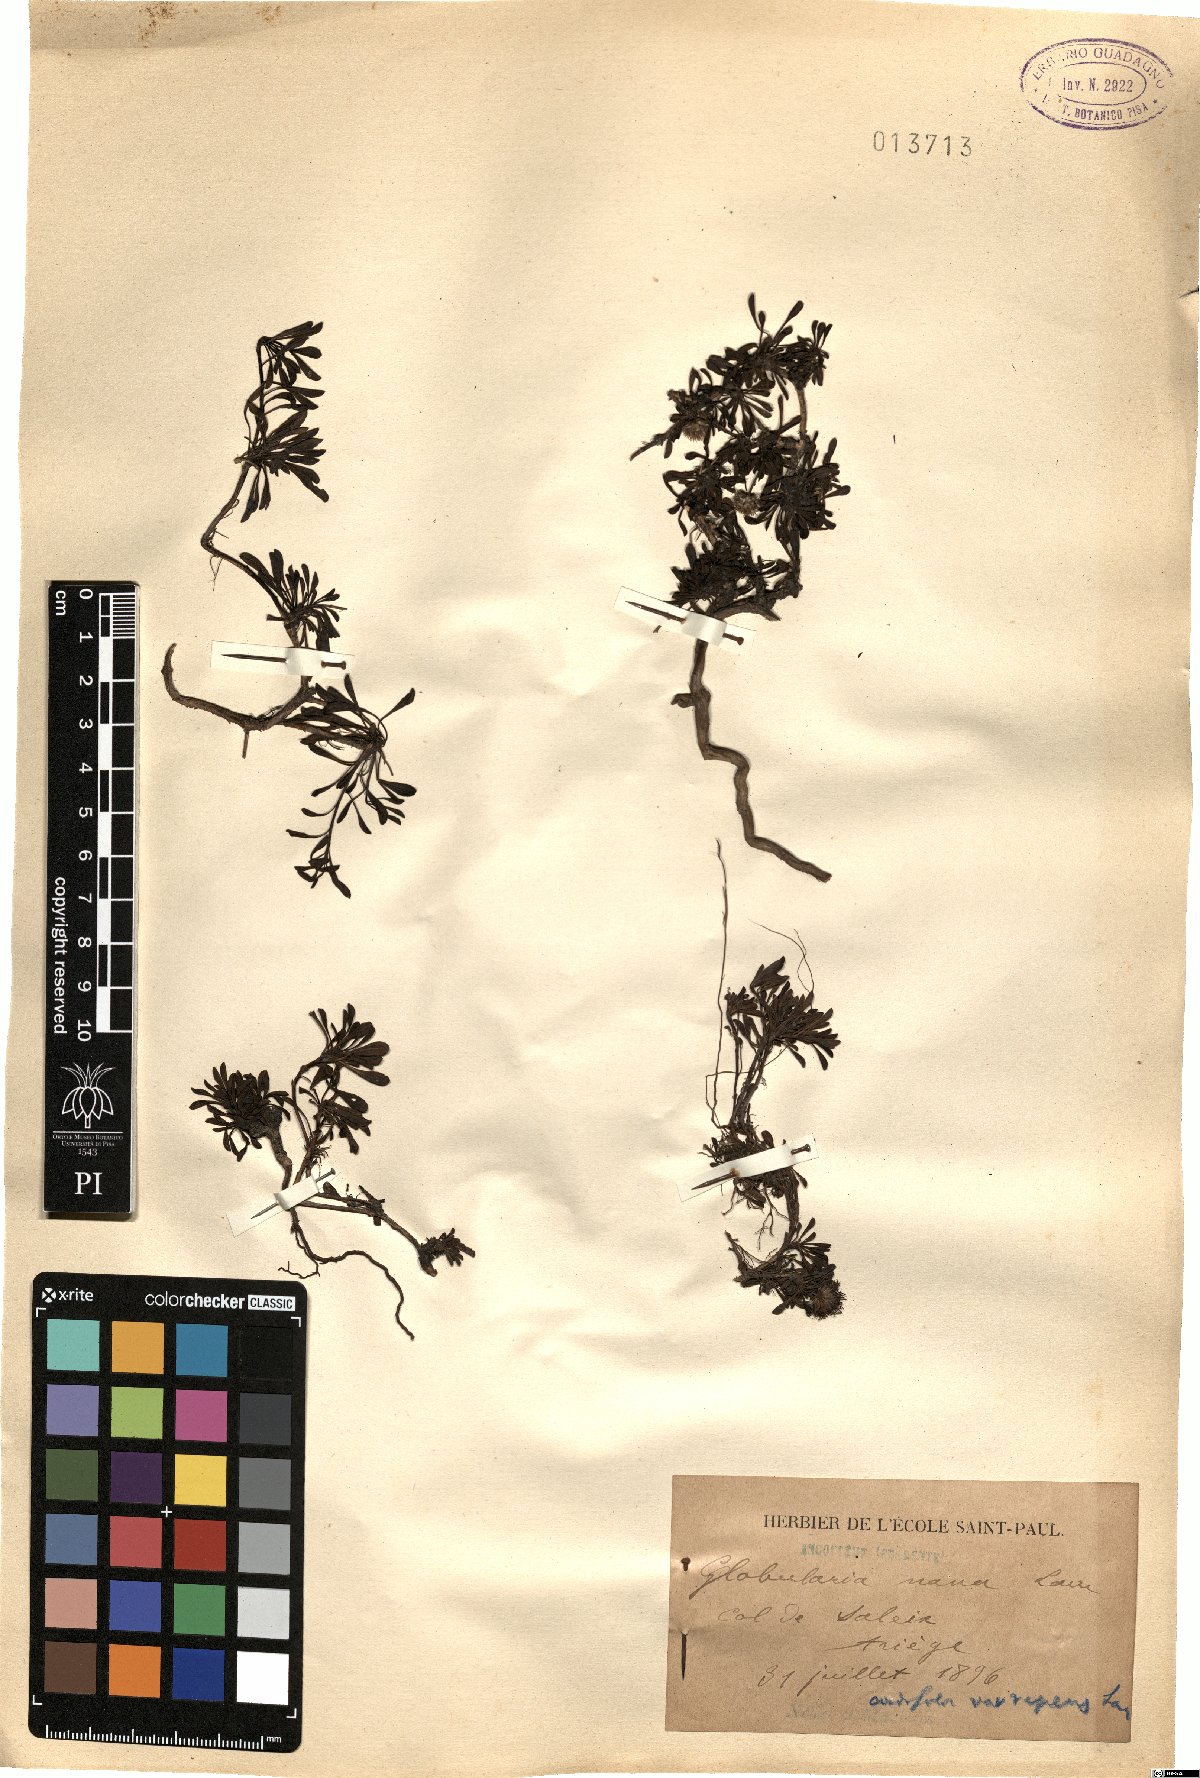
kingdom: Plantae
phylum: Tracheophyta
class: Magnoliopsida
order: Lamiales
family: Plantaginaceae
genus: Globularia
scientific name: Globularia repens
